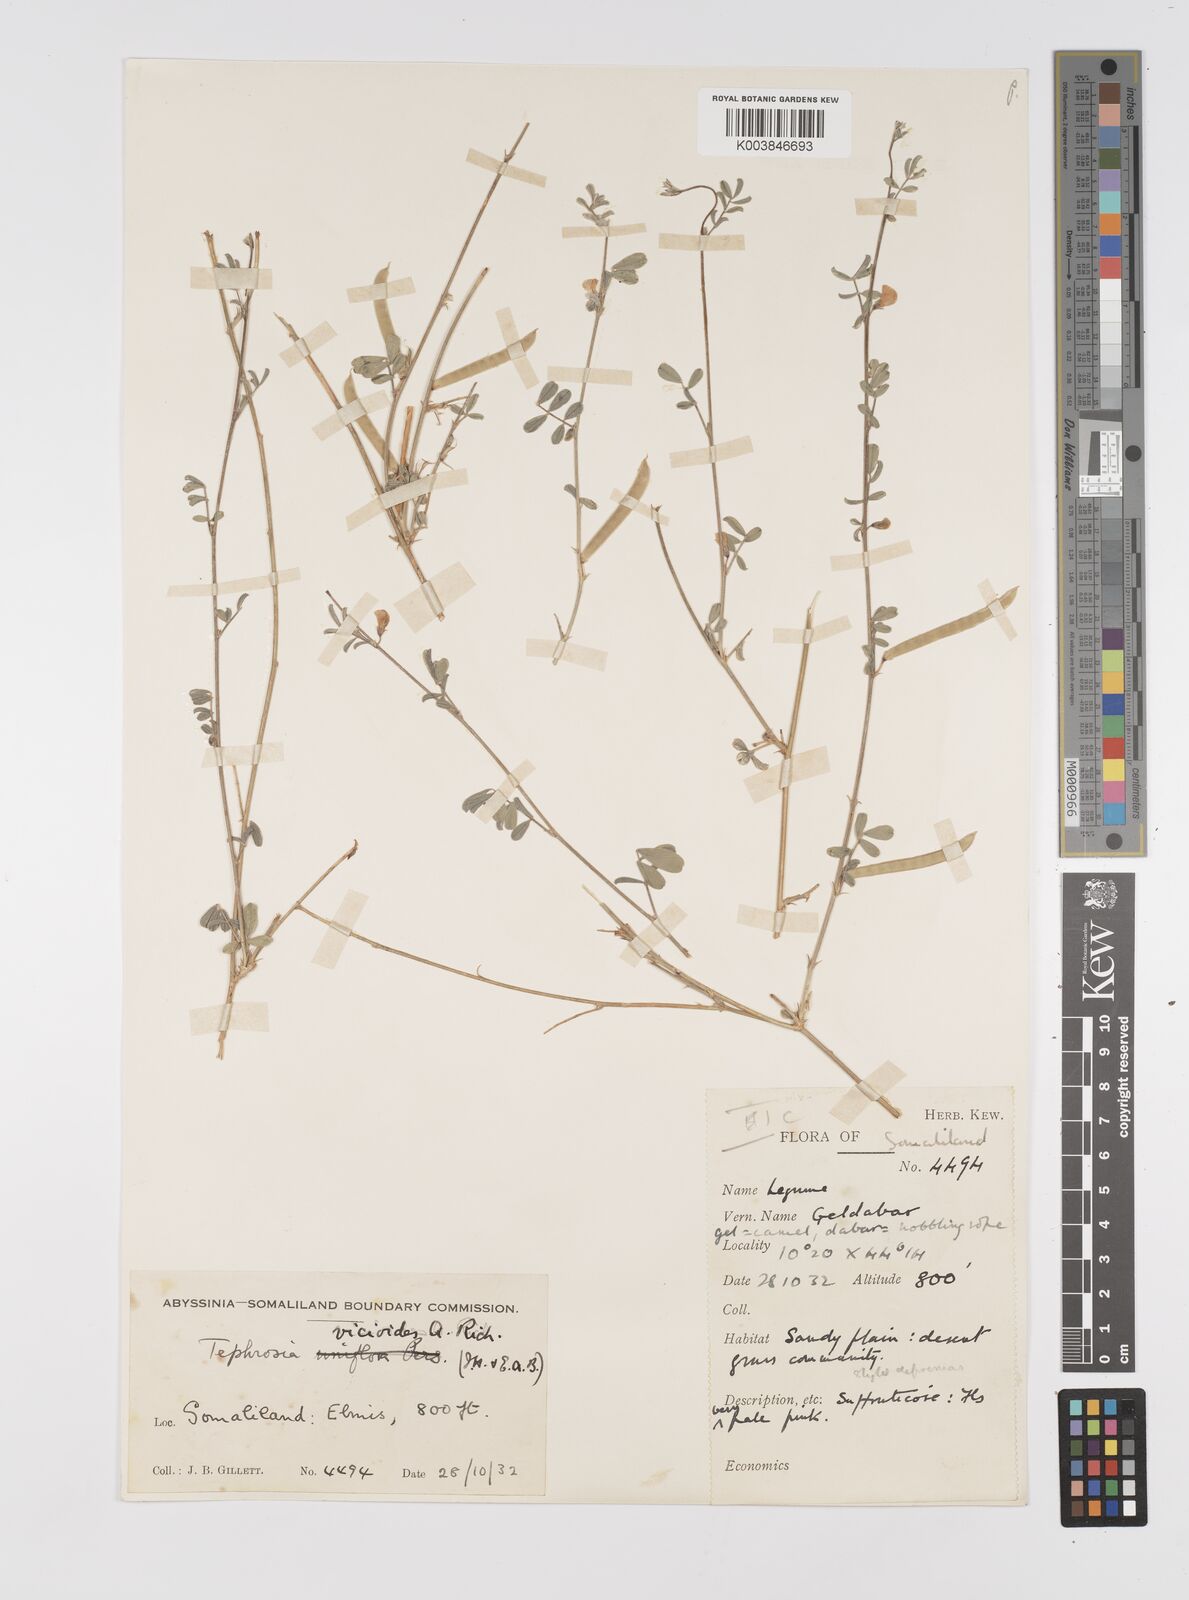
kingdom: Plantae
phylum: Tracheophyta
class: Magnoliopsida
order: Fabales
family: Fabaceae
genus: Tephrosia
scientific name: Tephrosia uniflora
